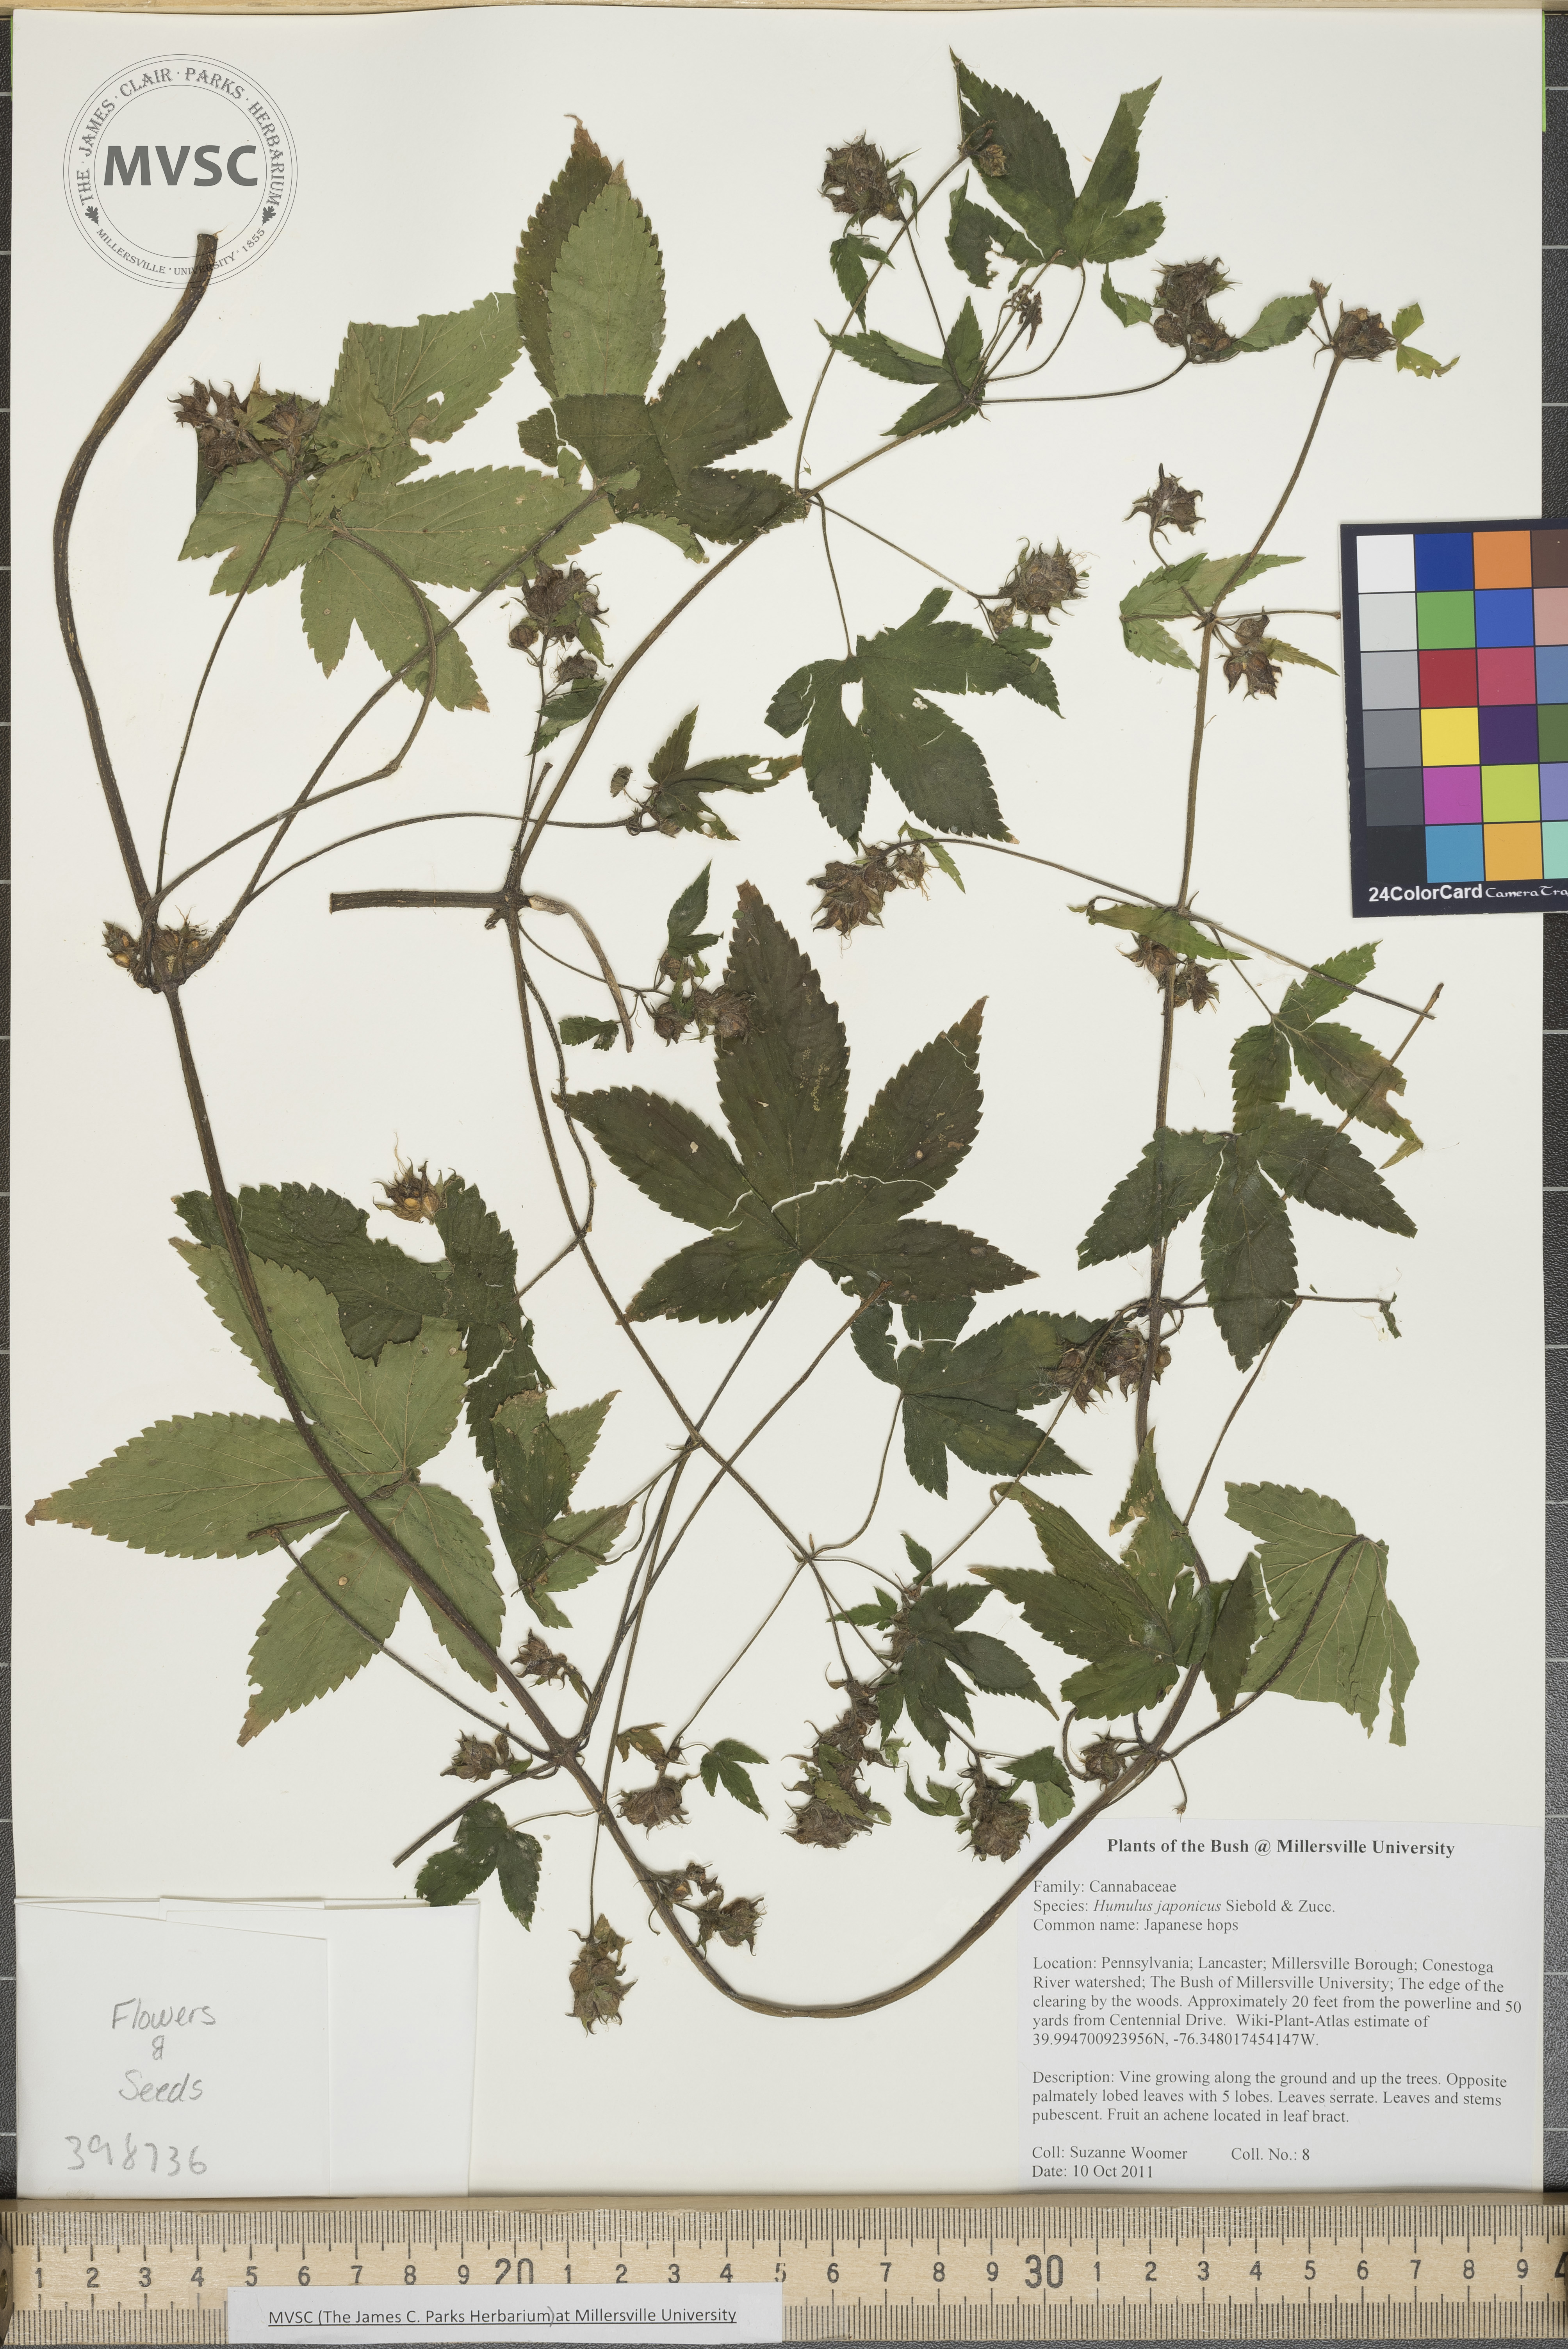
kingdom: Plantae
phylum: Tracheophyta
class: Magnoliopsida
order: Rosales
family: Cannabaceae
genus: Humulus
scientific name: Humulus scandens
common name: Japanese hops
